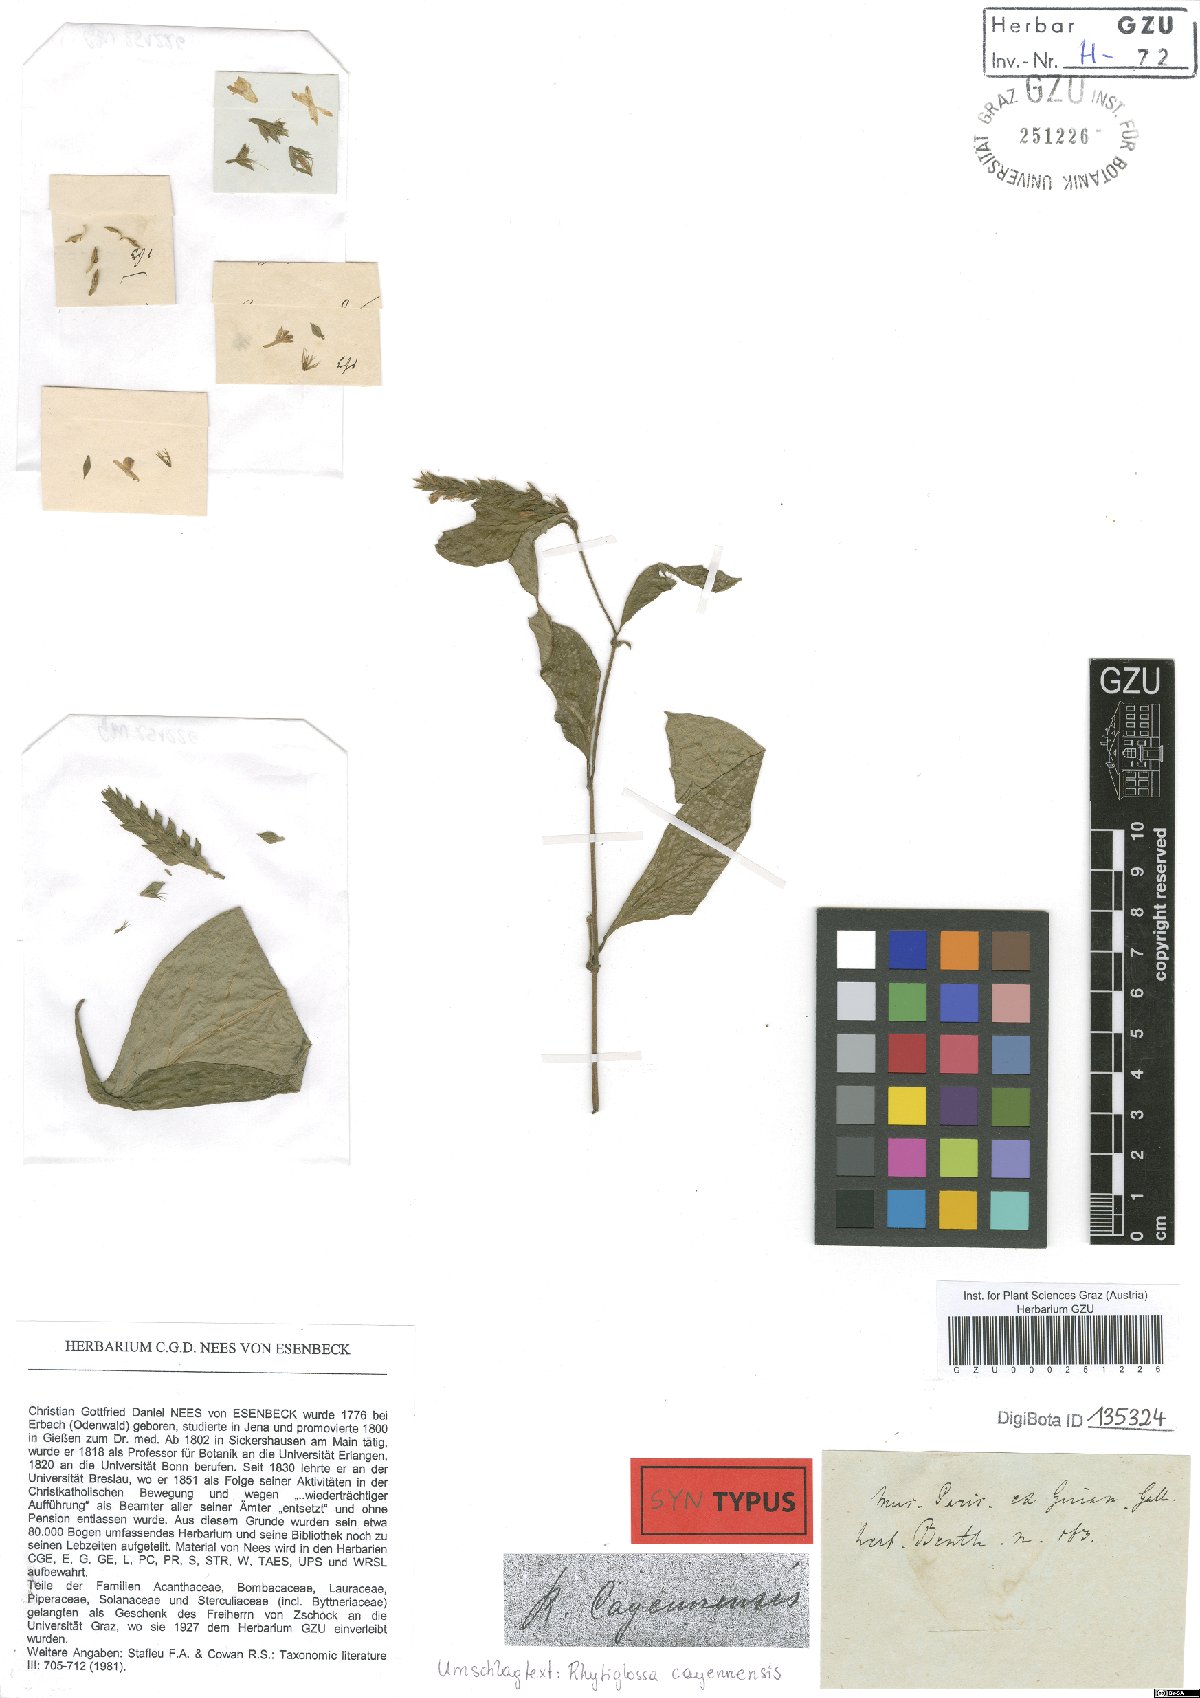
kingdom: Plantae
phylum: Tracheophyta
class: Magnoliopsida
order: Lamiales
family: Acanthaceae
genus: Dianthera
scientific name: Dianthera cayennensis
